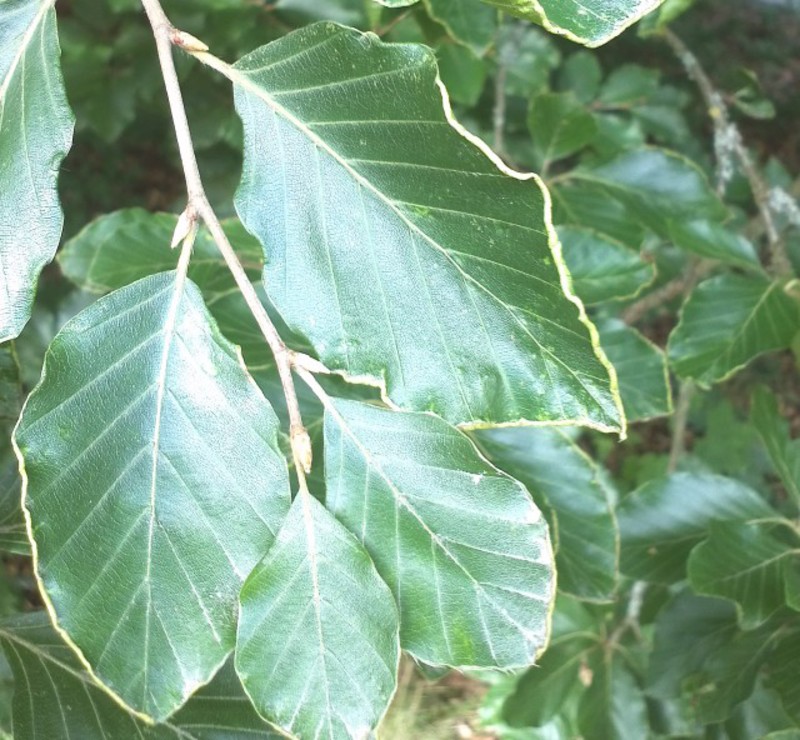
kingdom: Animalia
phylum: Arthropoda
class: Arachnida
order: Trombidiformes
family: Eriophyidae
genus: Acalitus
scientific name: Acalitus stenaspis
